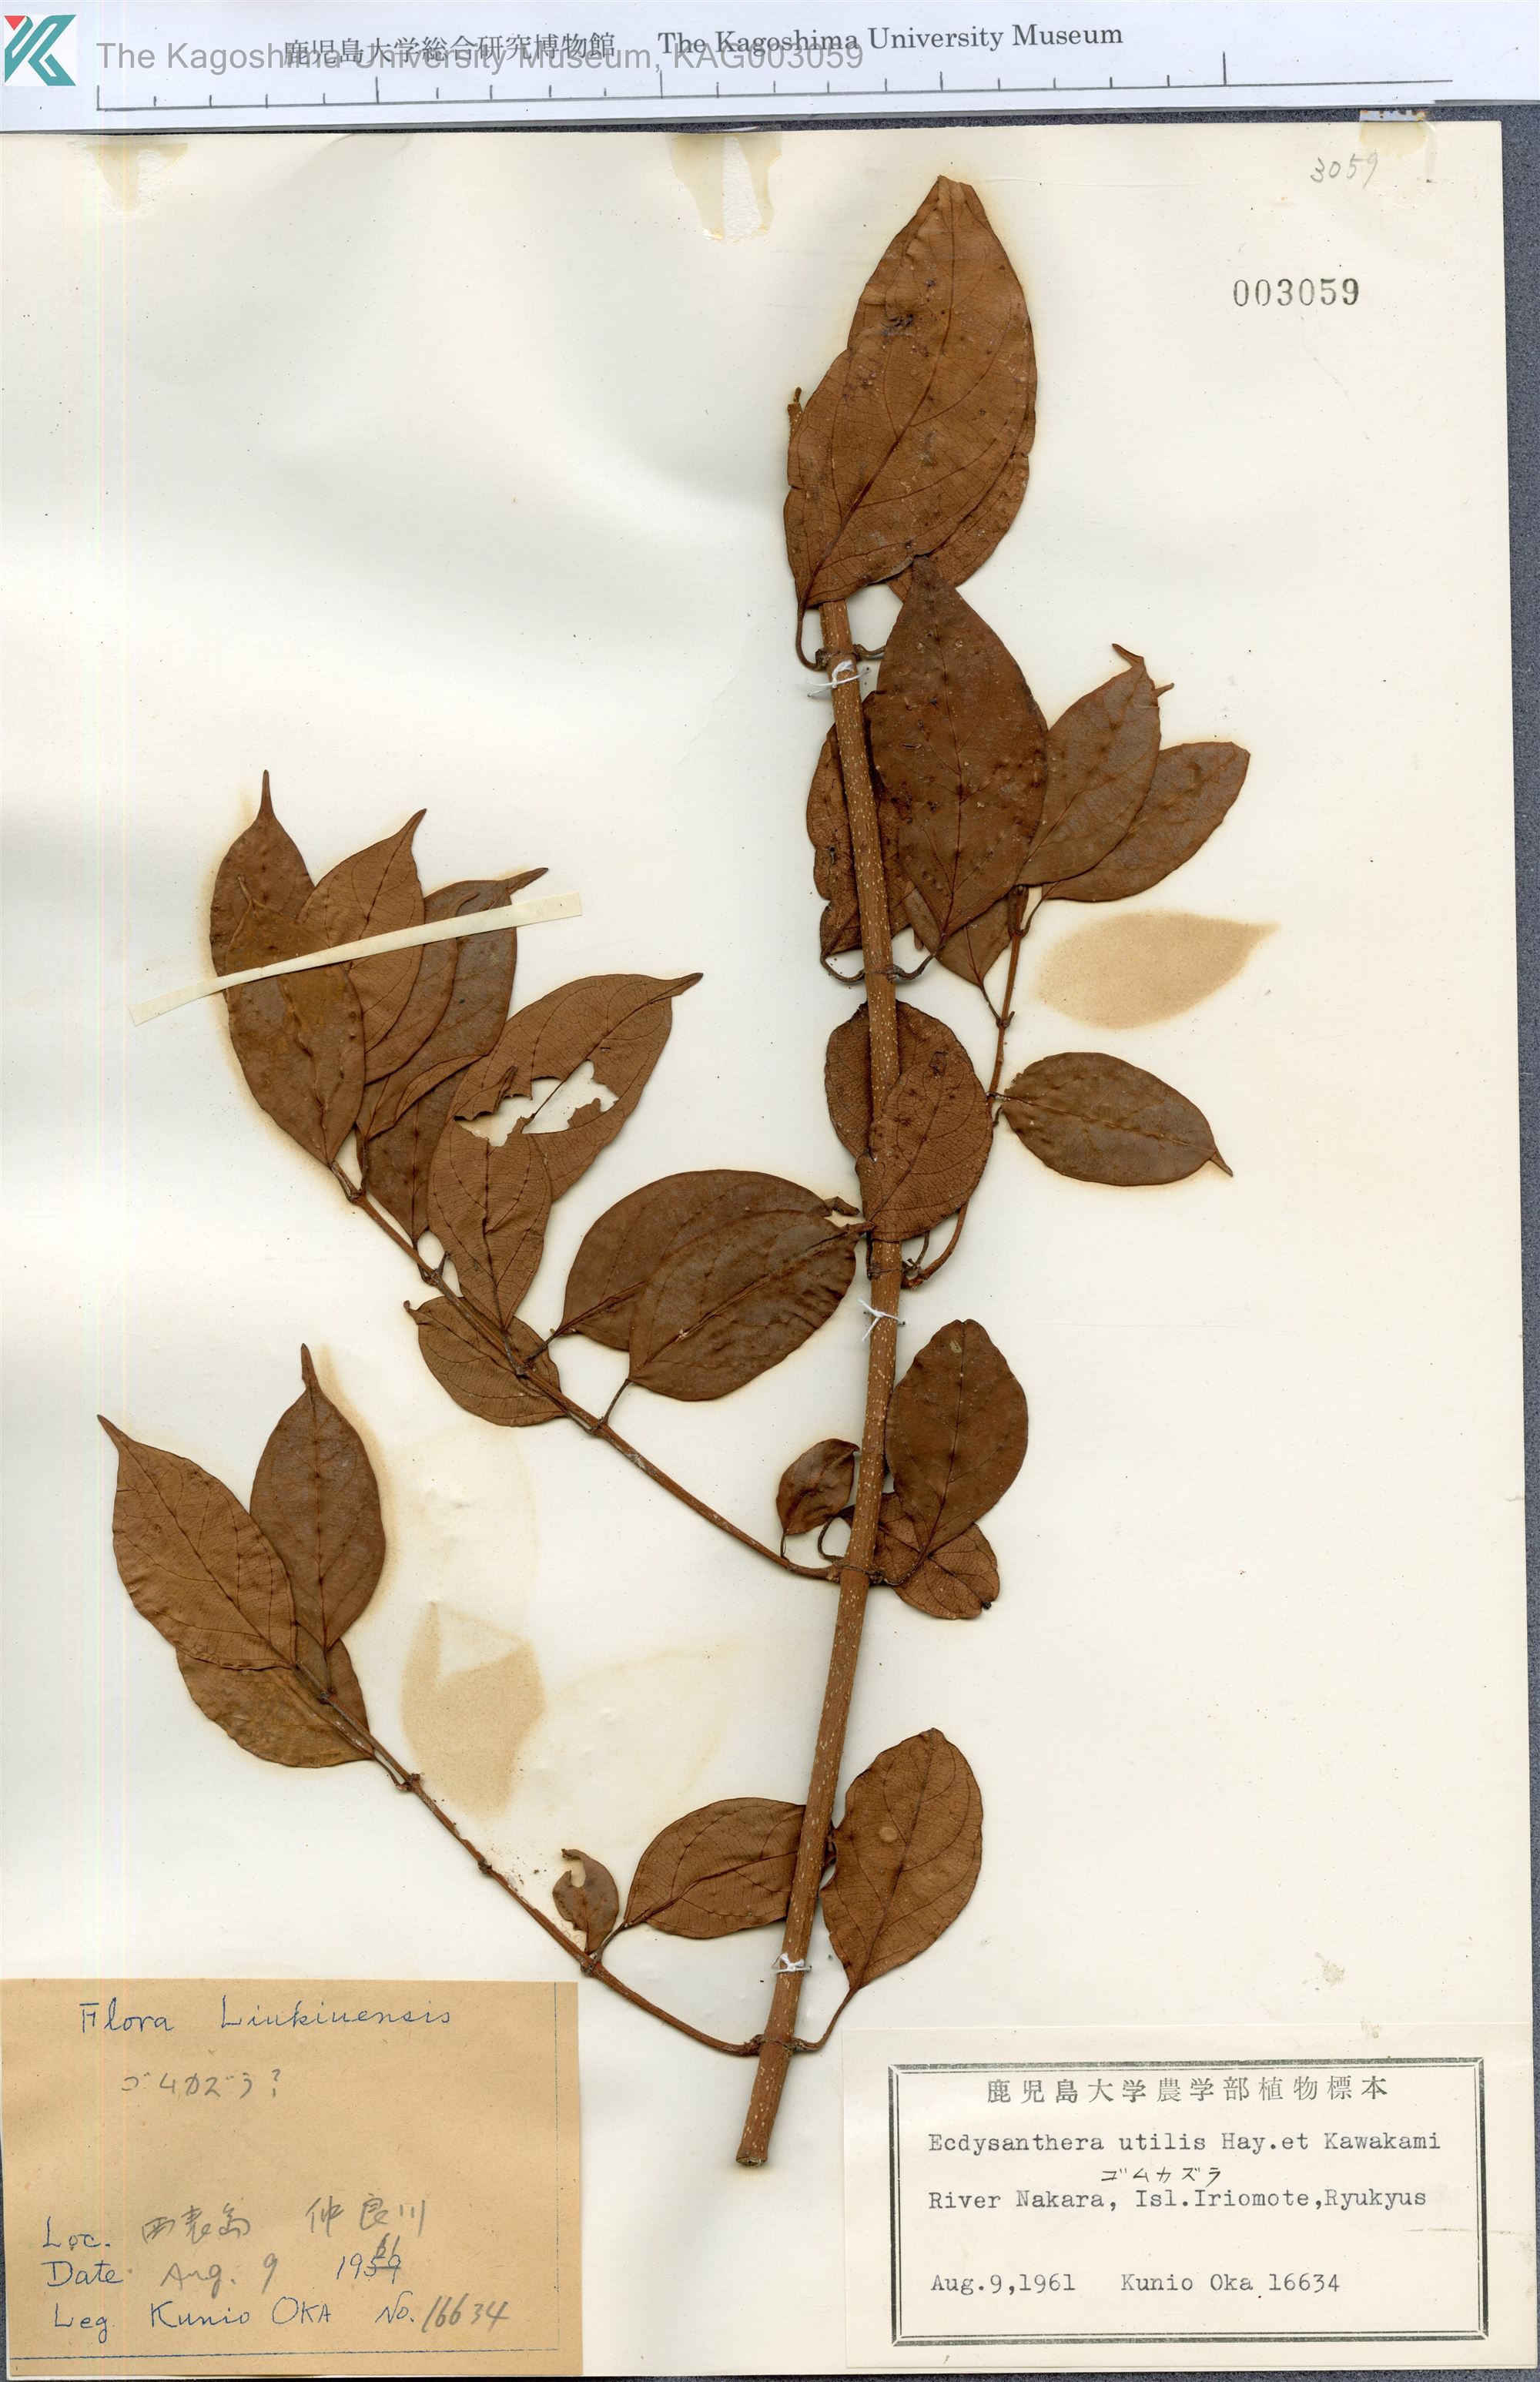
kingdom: Plantae
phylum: Tracheophyta
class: Magnoliopsida
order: Gentianales
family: Apocynaceae
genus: Urceola
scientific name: Urceola micrantha
